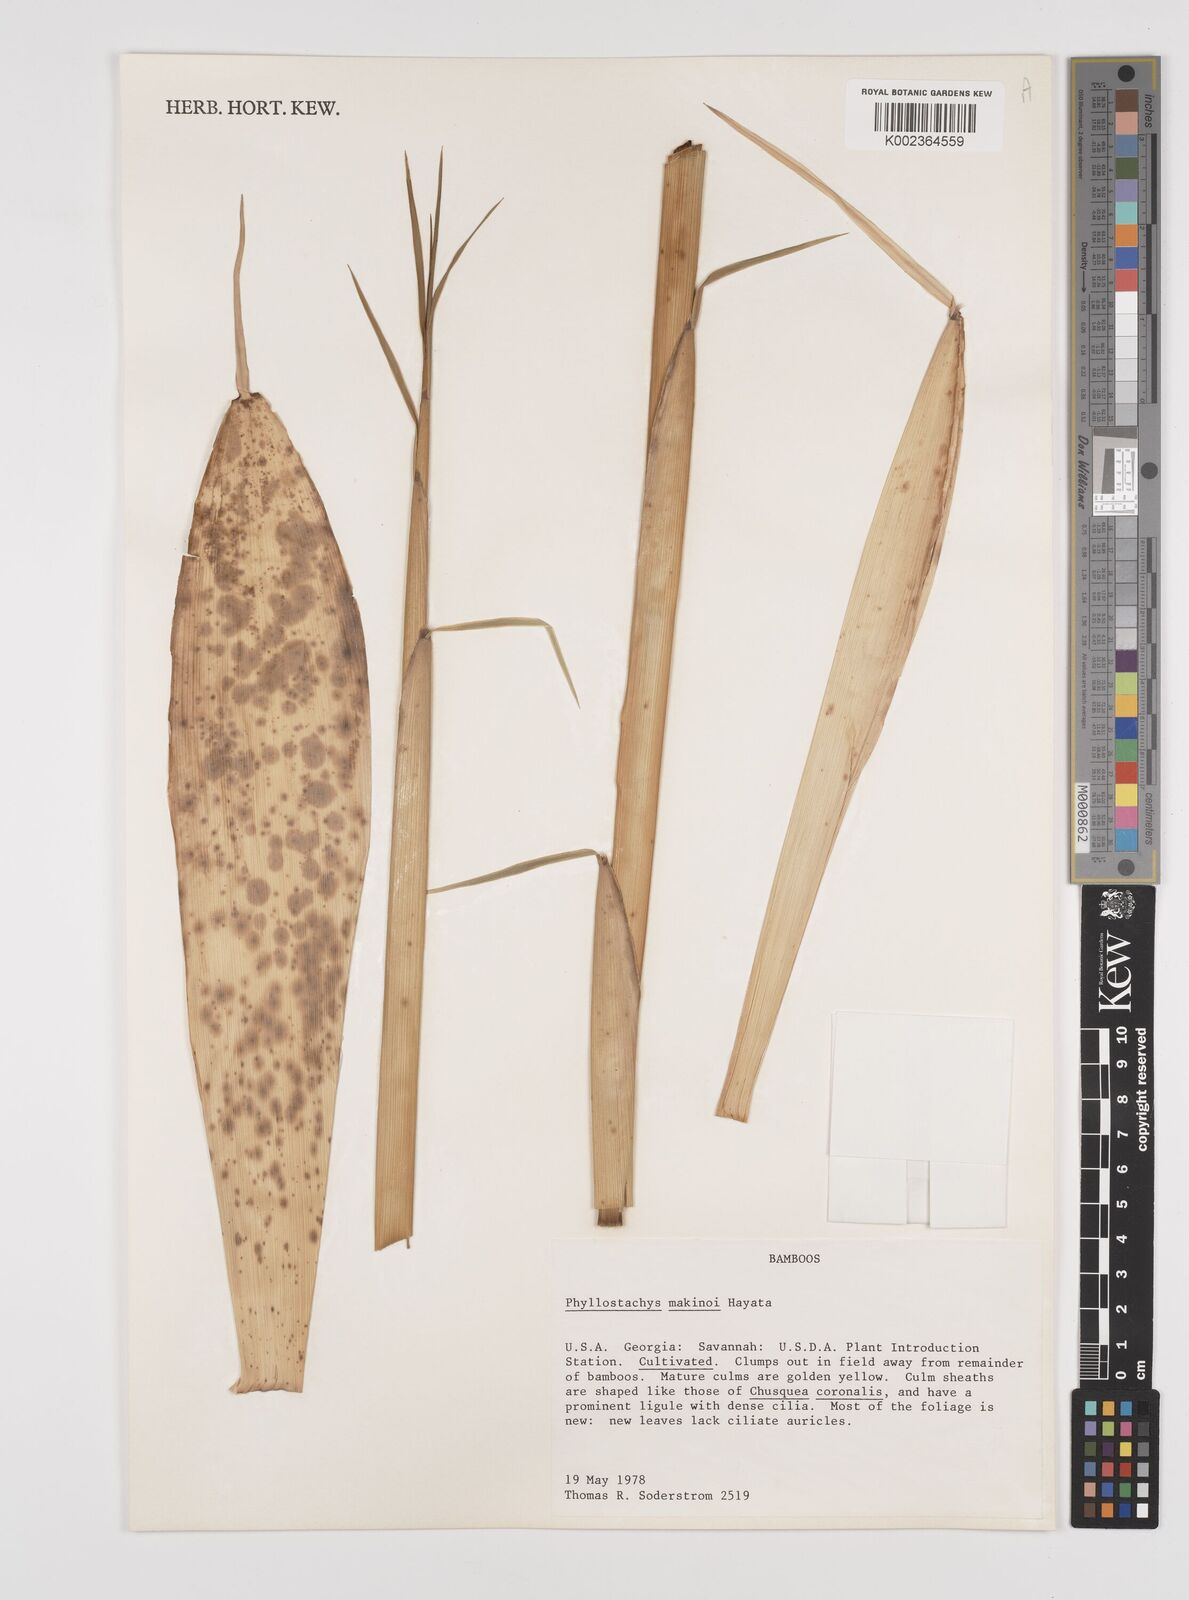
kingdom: Plantae
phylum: Tracheophyta
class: Liliopsida
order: Poales
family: Poaceae
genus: Phyllostachys
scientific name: Phyllostachys makinoi
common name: Makino bamboo
